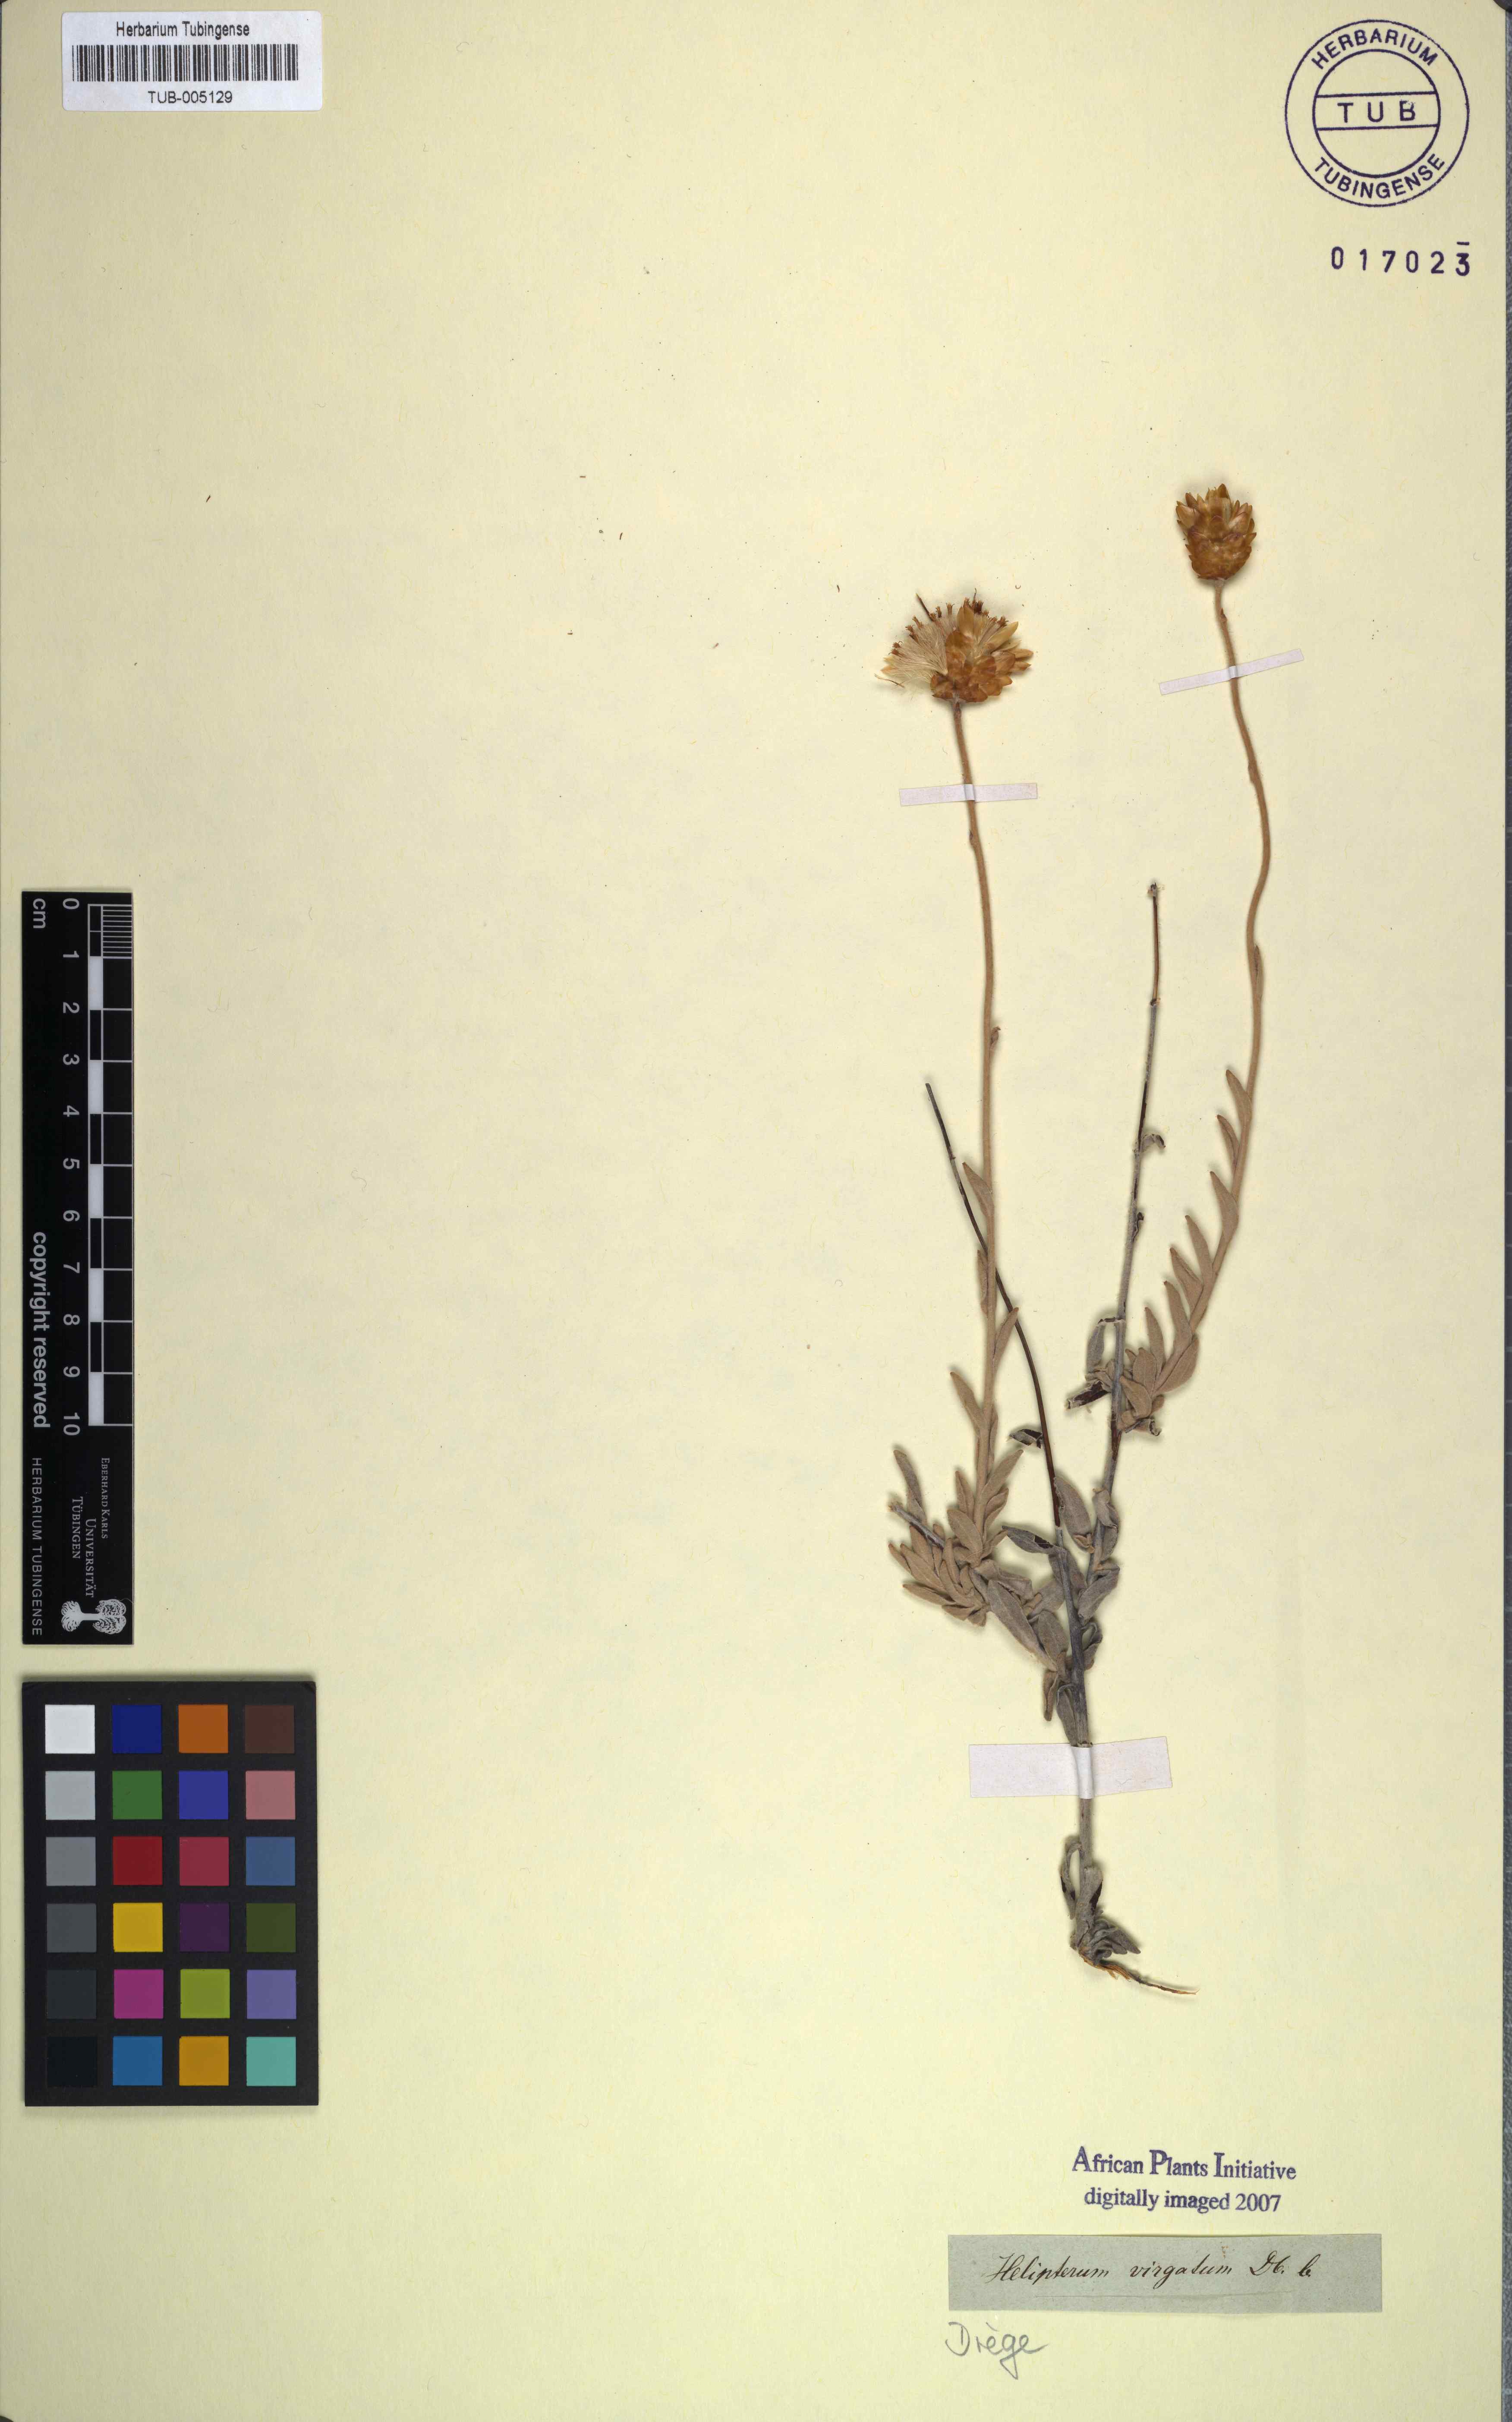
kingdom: Plantae
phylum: Tracheophyta
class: Magnoliopsida
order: Asterales
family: Asteraceae
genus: Syncarpha
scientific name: Syncarpha virgata
